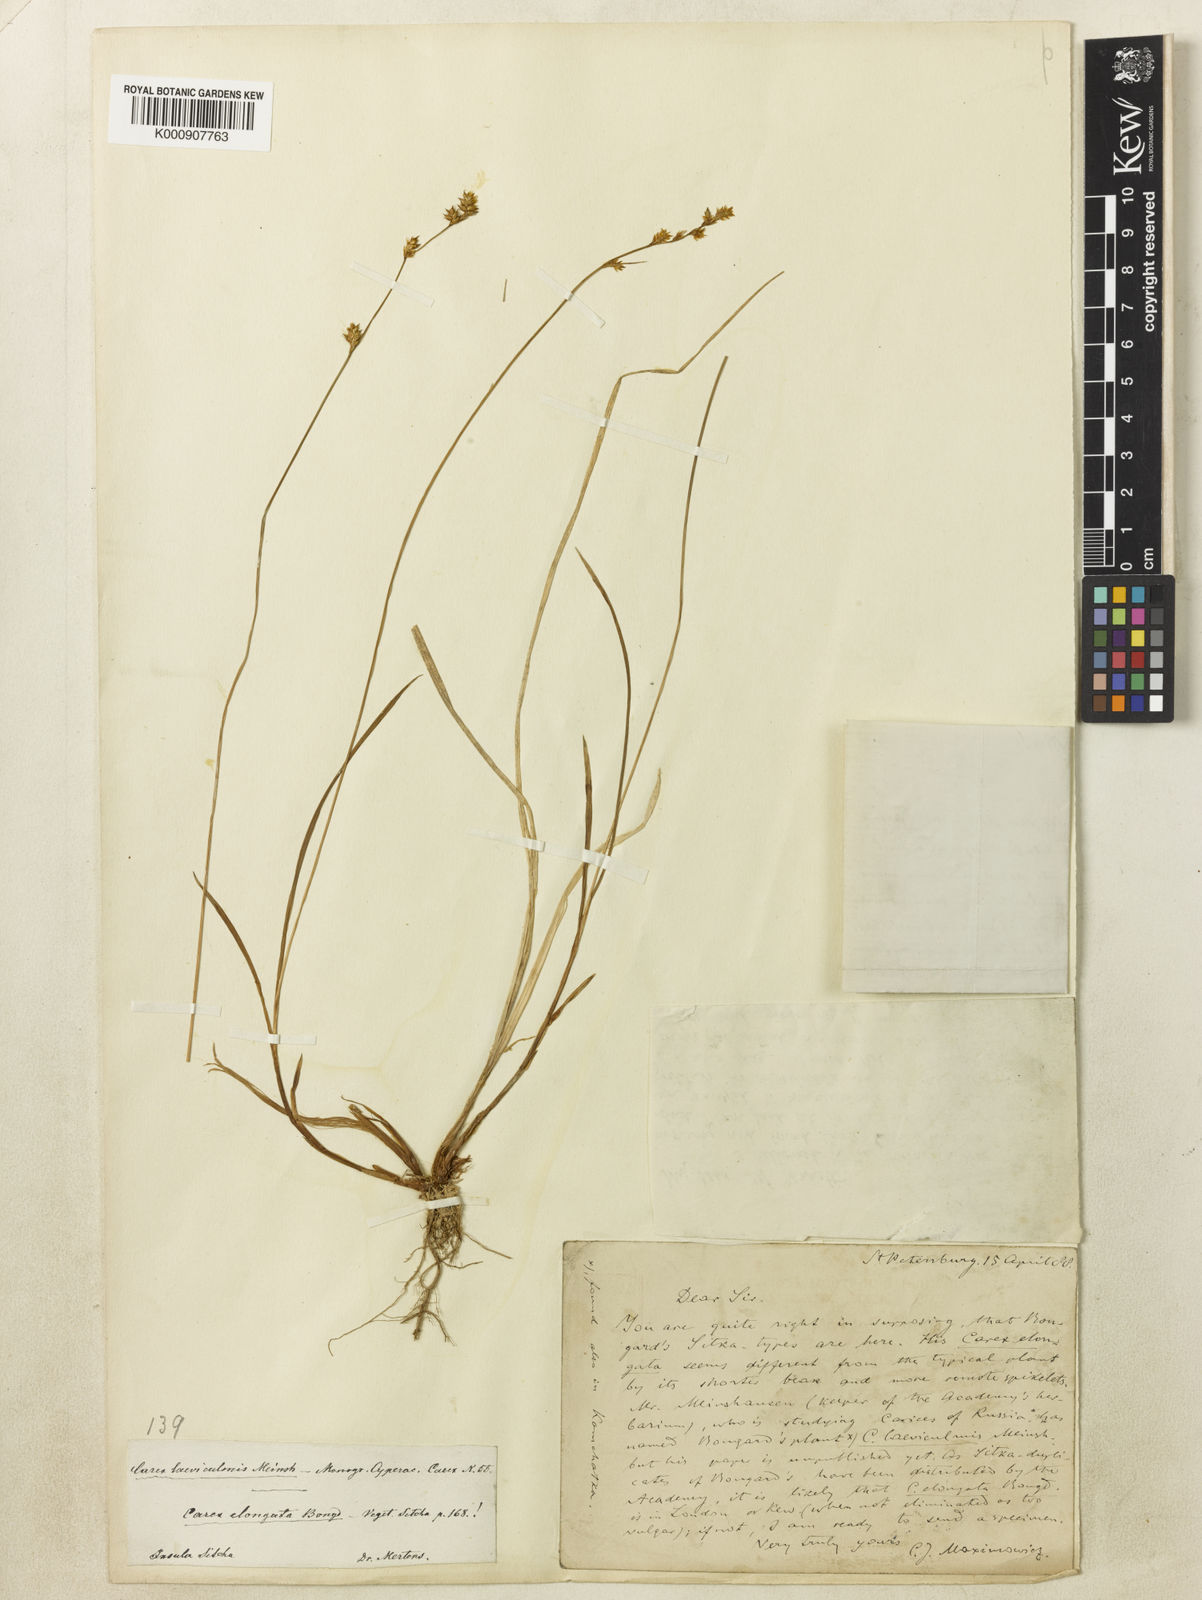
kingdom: Plantae
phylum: Tracheophyta
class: Liliopsida
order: Poales
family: Cyperaceae
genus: Carex
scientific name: Carex laeviculmis
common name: Smooth sedge
